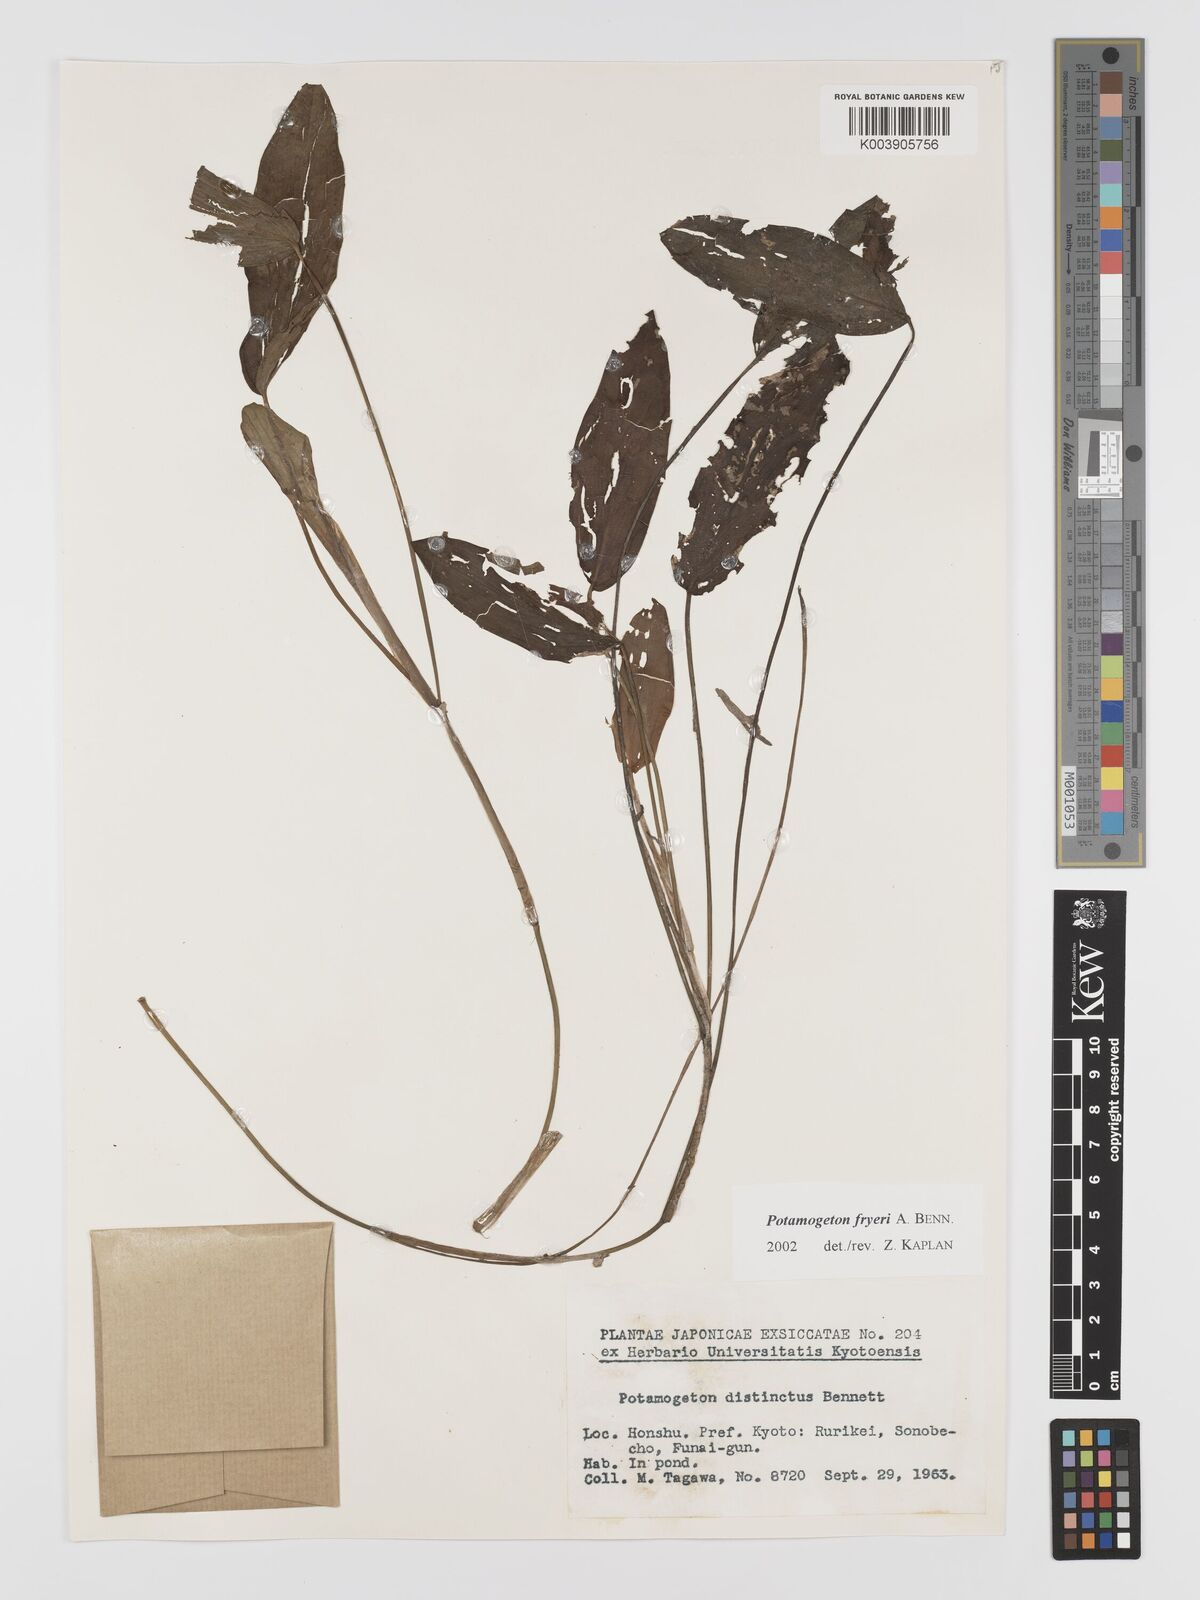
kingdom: Plantae
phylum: Tracheophyta
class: Liliopsida
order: Alismatales
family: Potamogetonaceae
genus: Potamogeton
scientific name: Potamogeton fryeri
